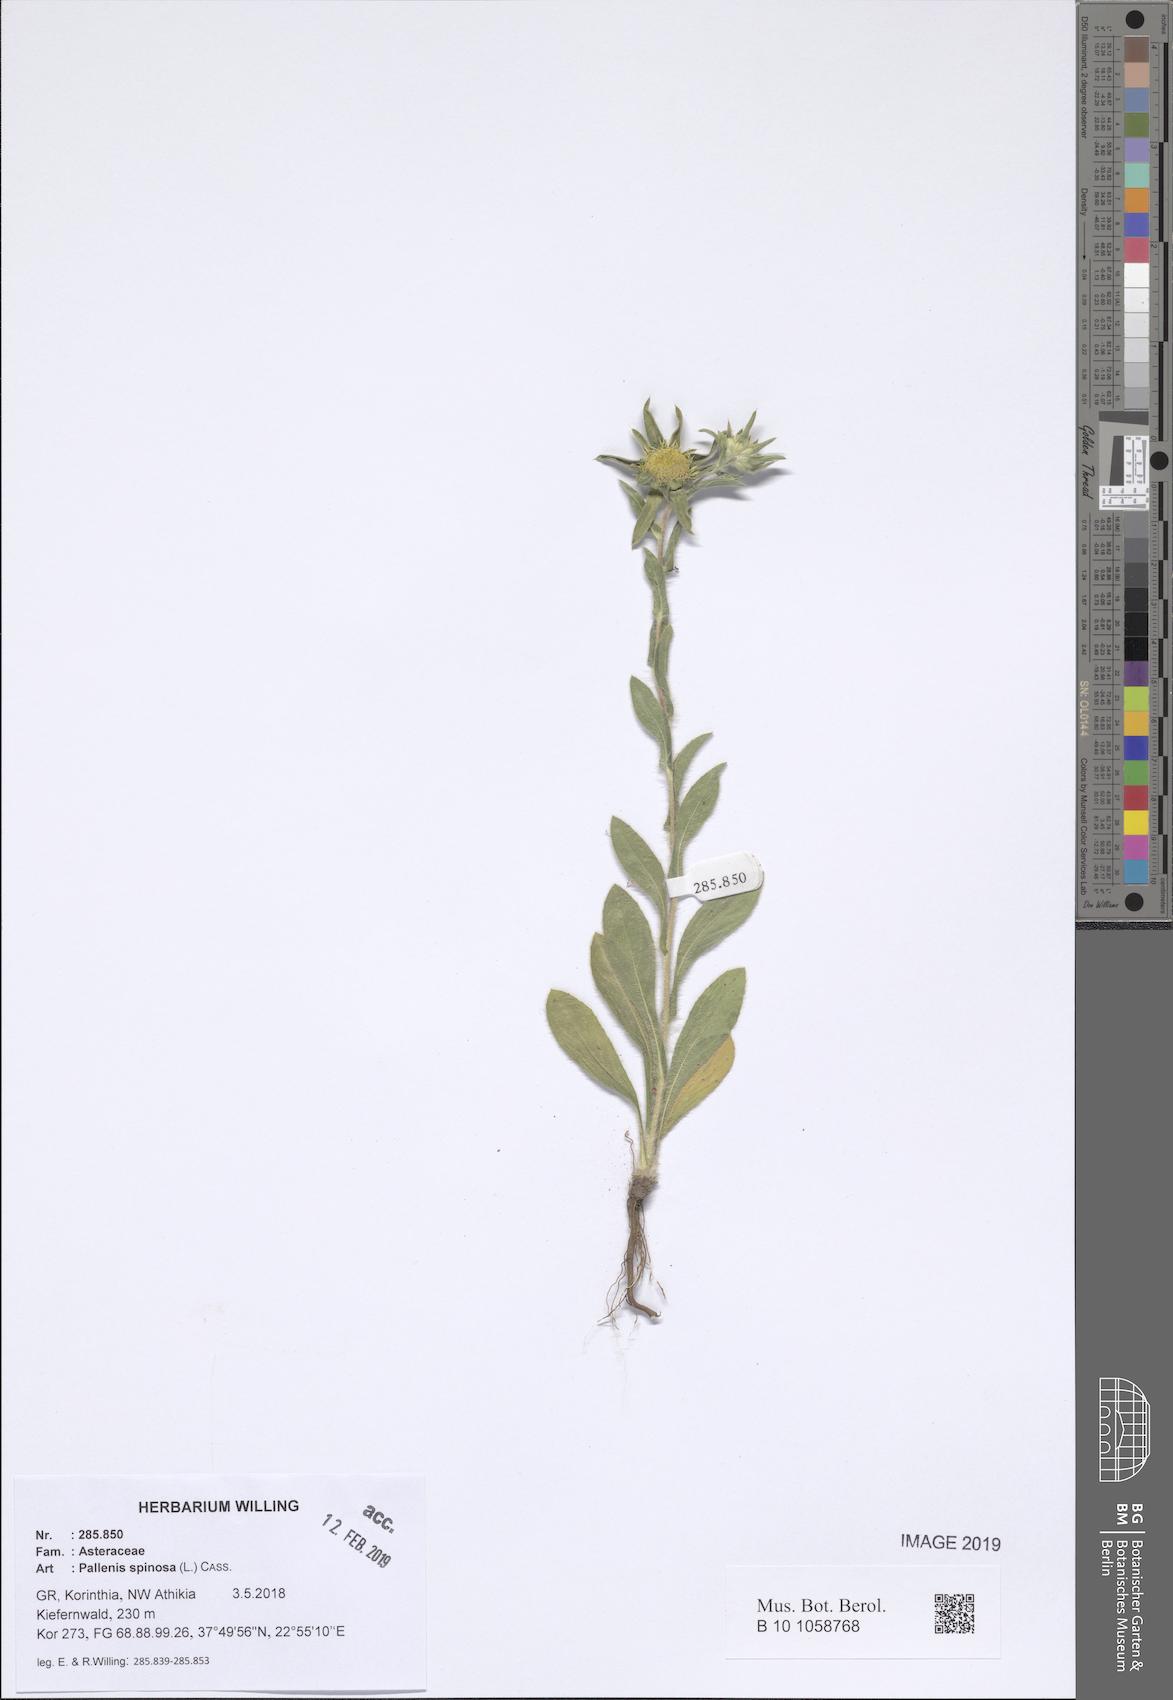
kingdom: Plantae
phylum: Tracheophyta
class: Magnoliopsida
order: Asterales
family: Asteraceae
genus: Pallenis
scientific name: Pallenis spinosa
